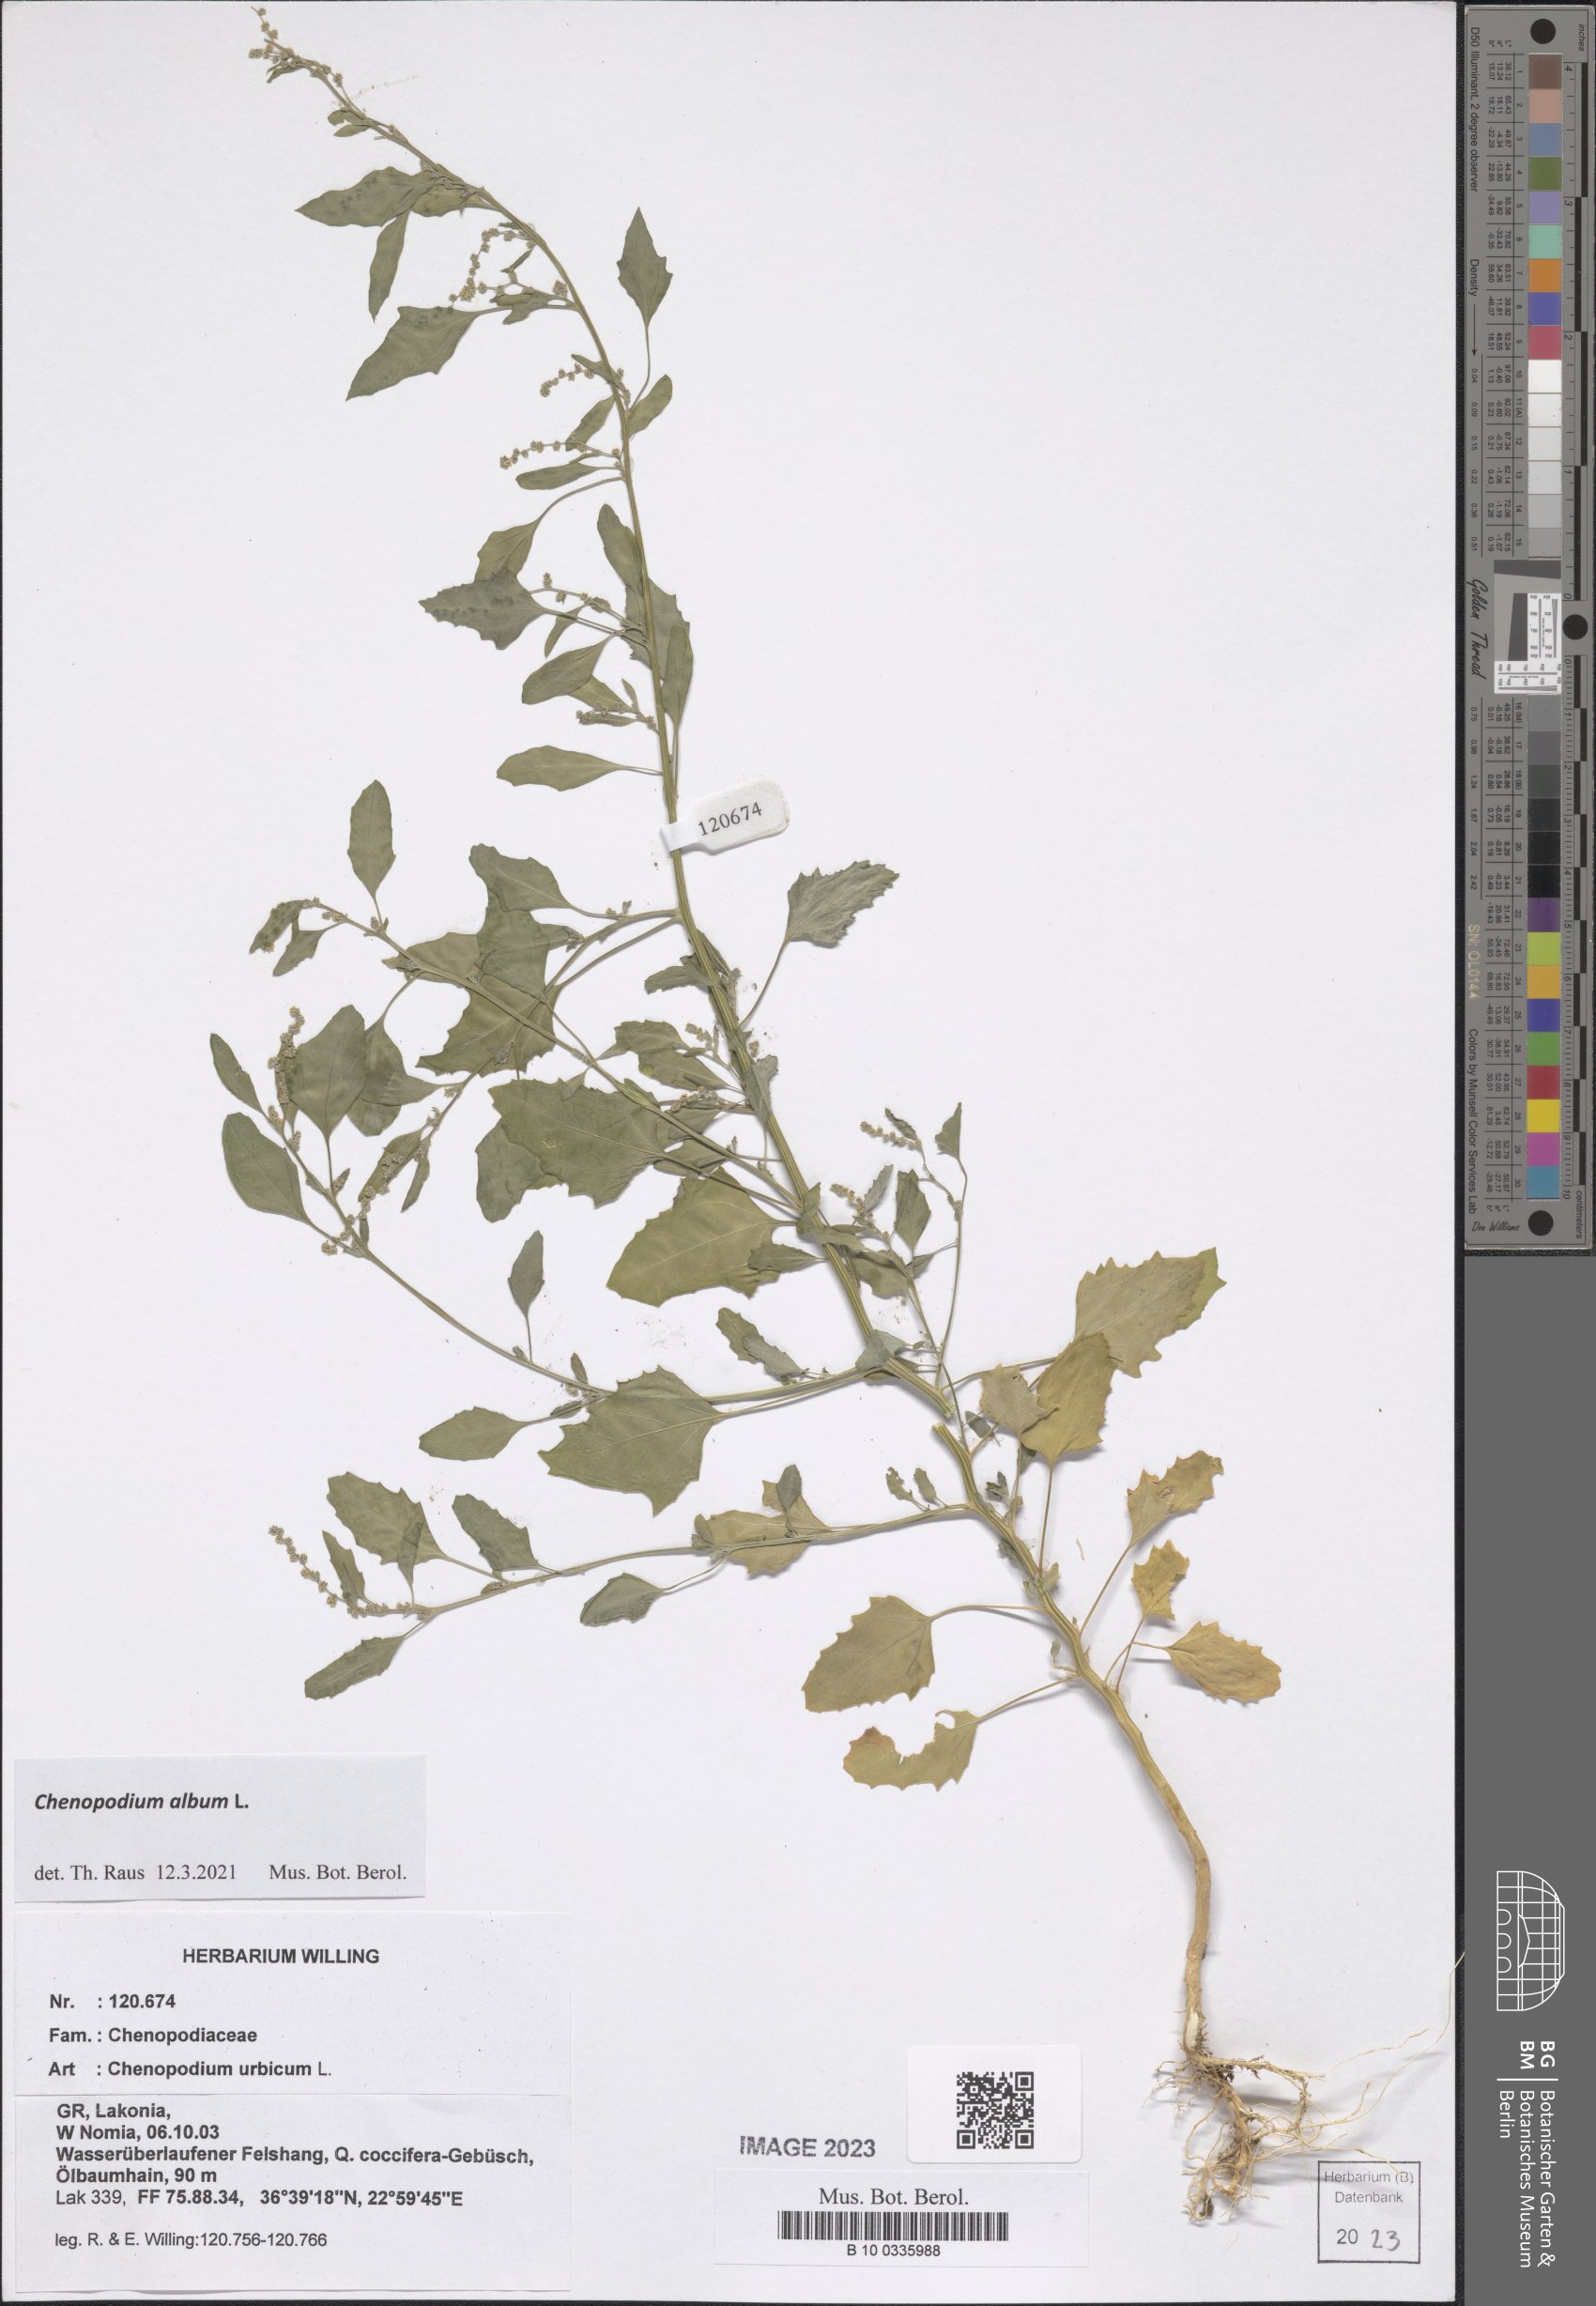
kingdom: Plantae
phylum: Tracheophyta
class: Magnoliopsida
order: Caryophyllales
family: Amaranthaceae
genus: Oxybasis
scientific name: Oxybasis urbica
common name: City goosefoot
